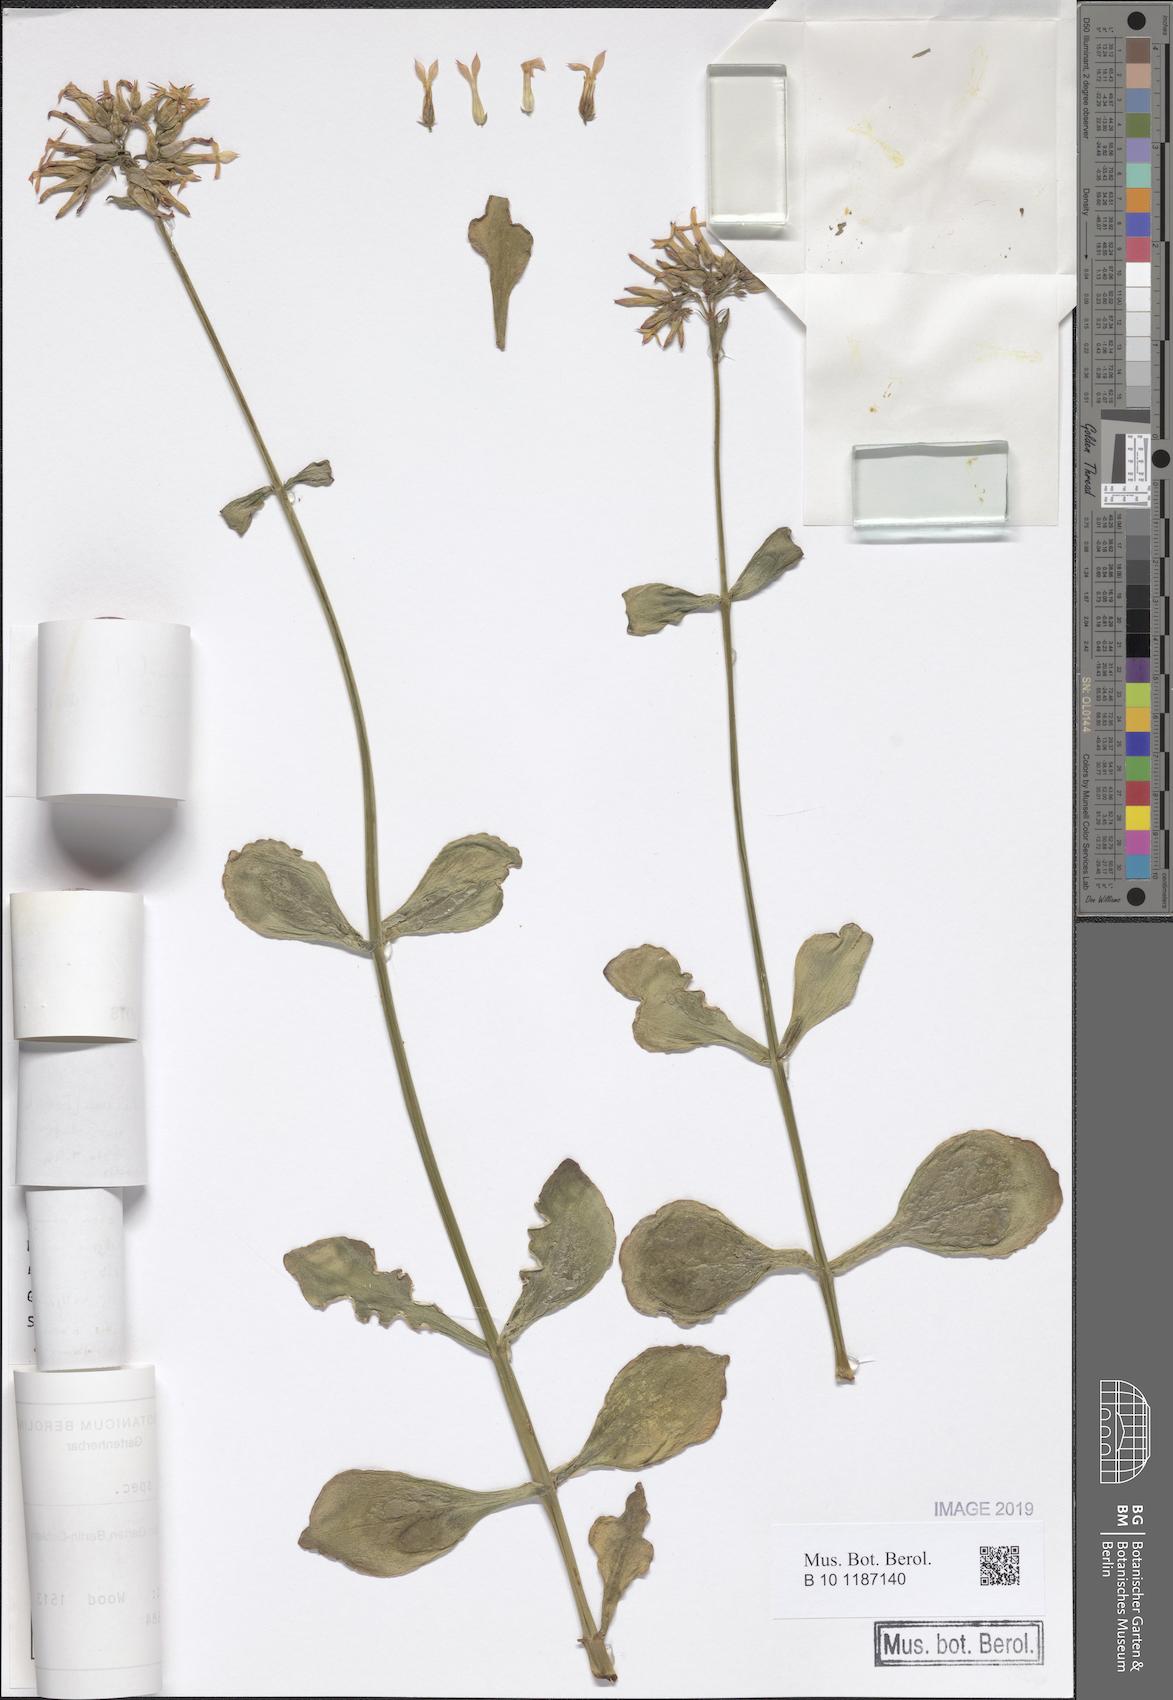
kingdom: Plantae
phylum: Tracheophyta
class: Magnoliopsida
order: Saxifragales
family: Crassulaceae
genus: Kalanchoe
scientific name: Kalanchoe deficiens
